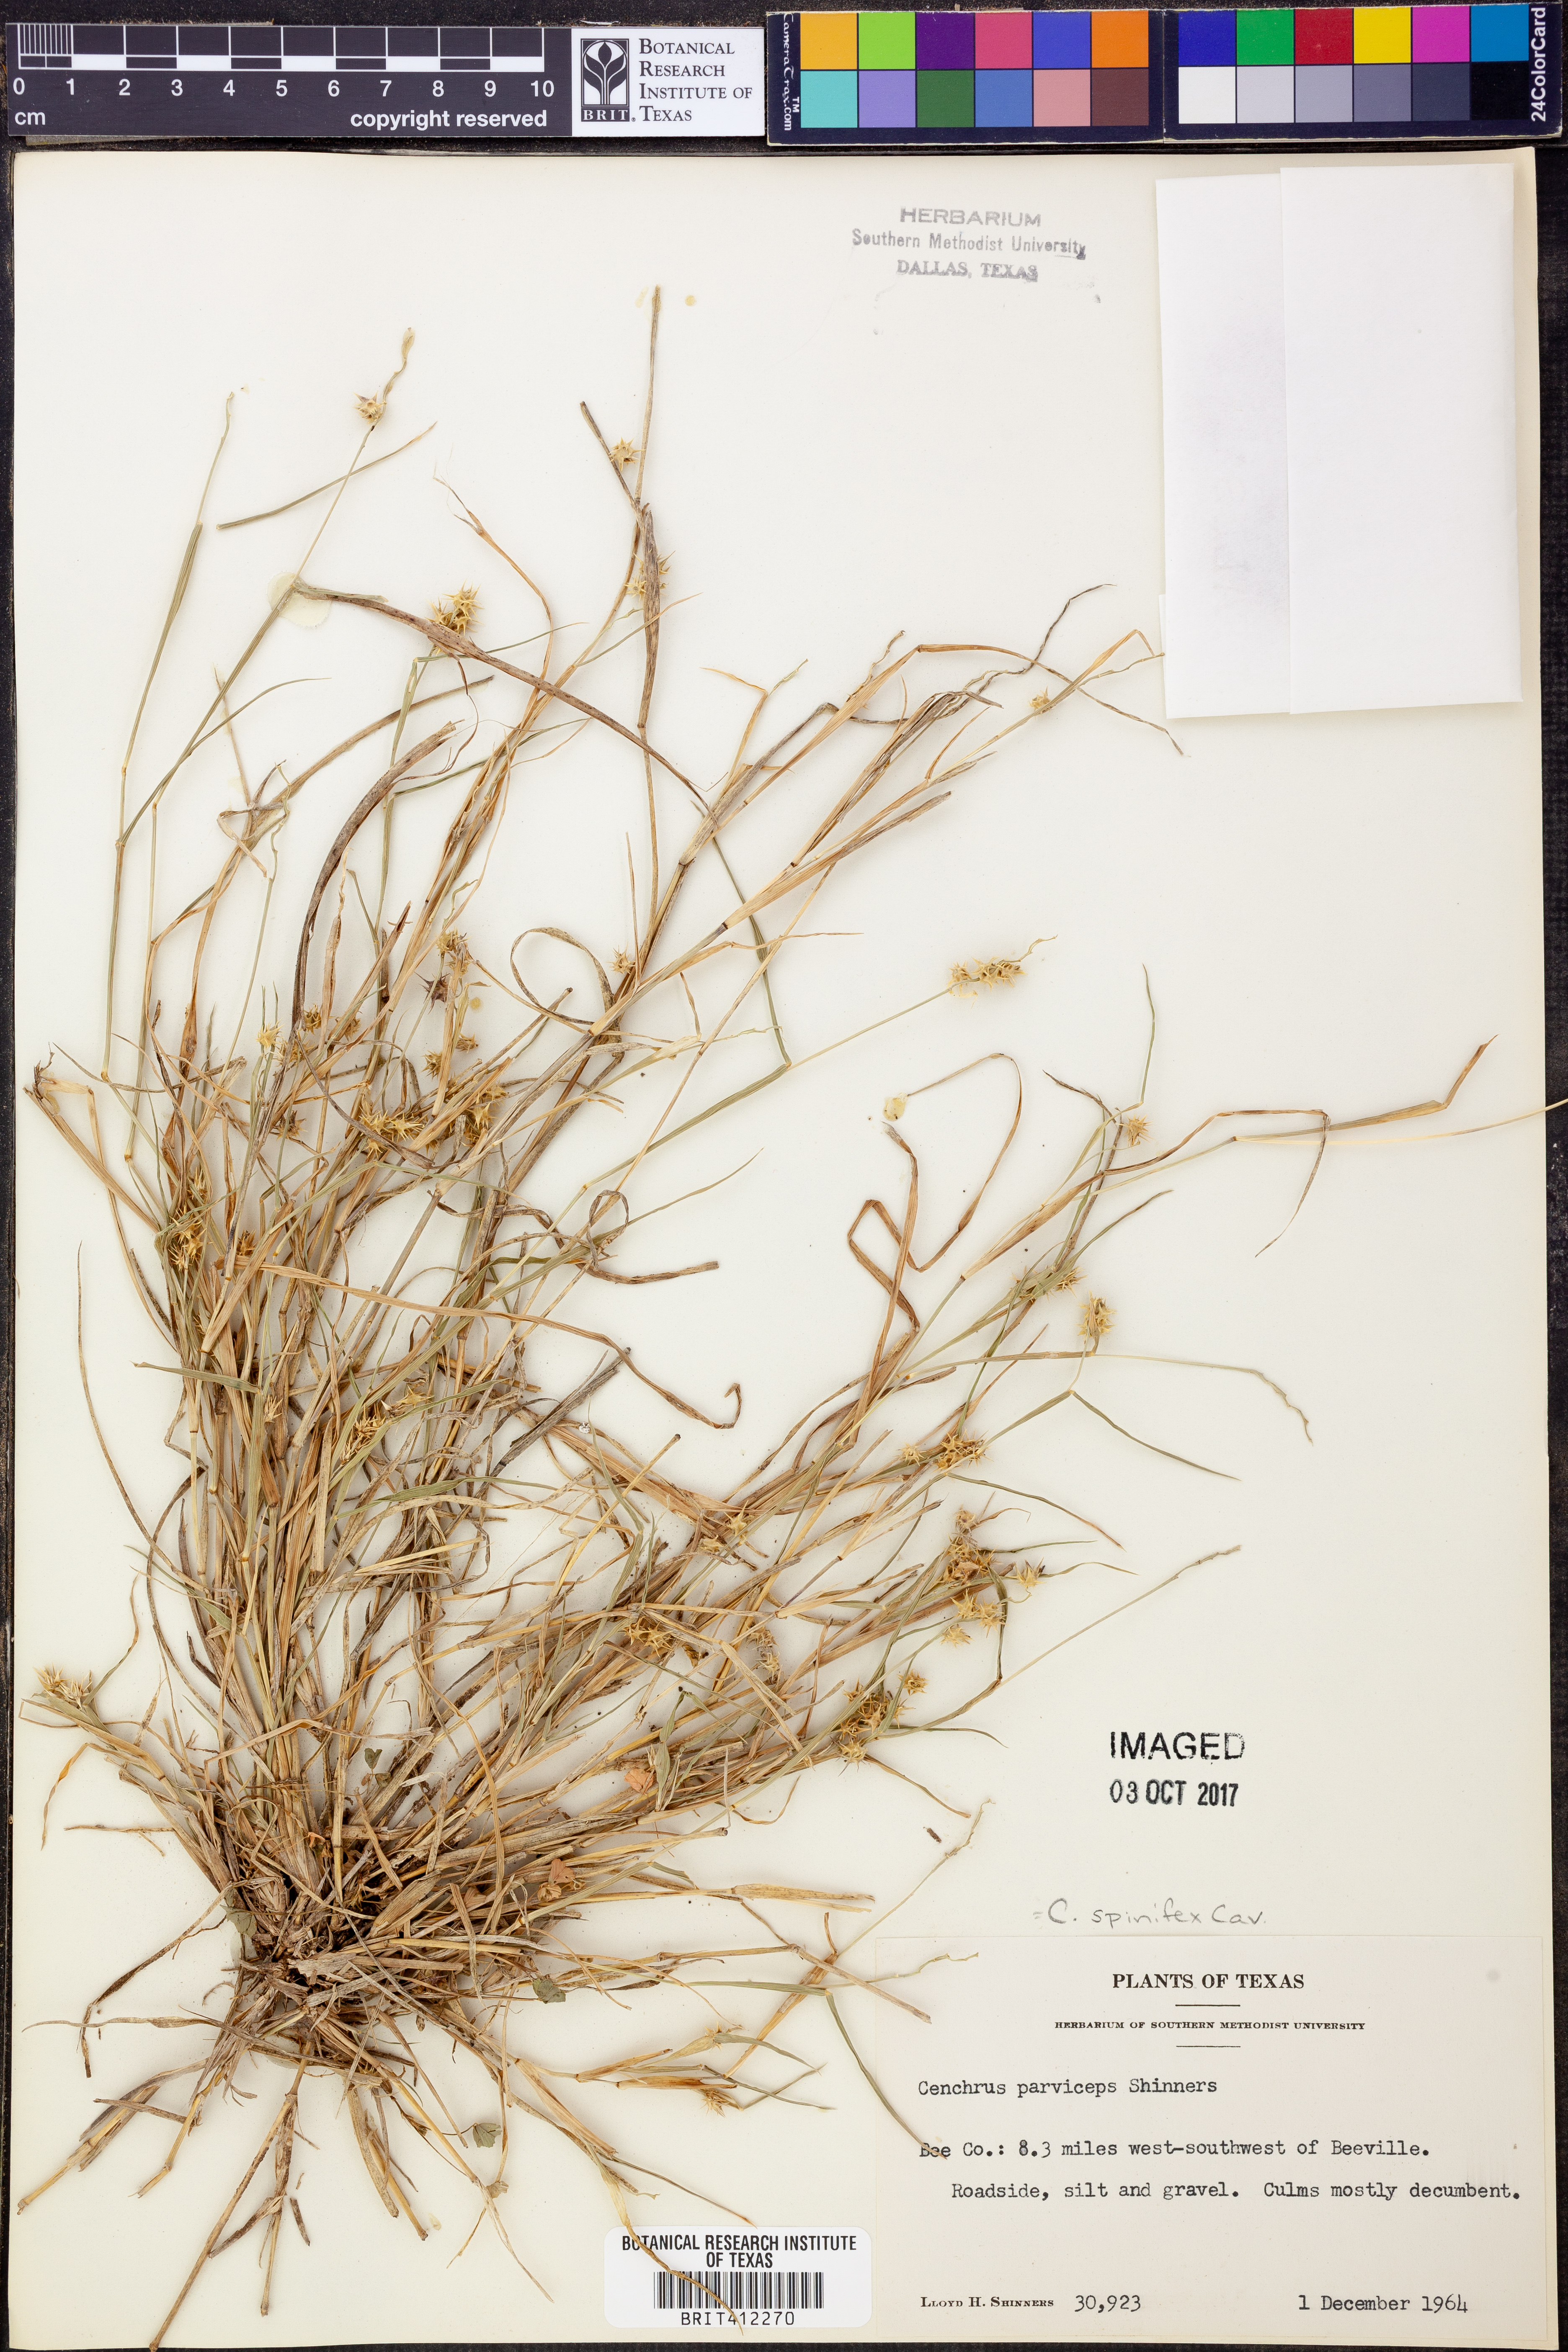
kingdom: Plantae
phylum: Tracheophyta
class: Liliopsida
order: Poales
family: Poaceae
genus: Cenchrus
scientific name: Cenchrus spinifex
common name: Coast sandbur
